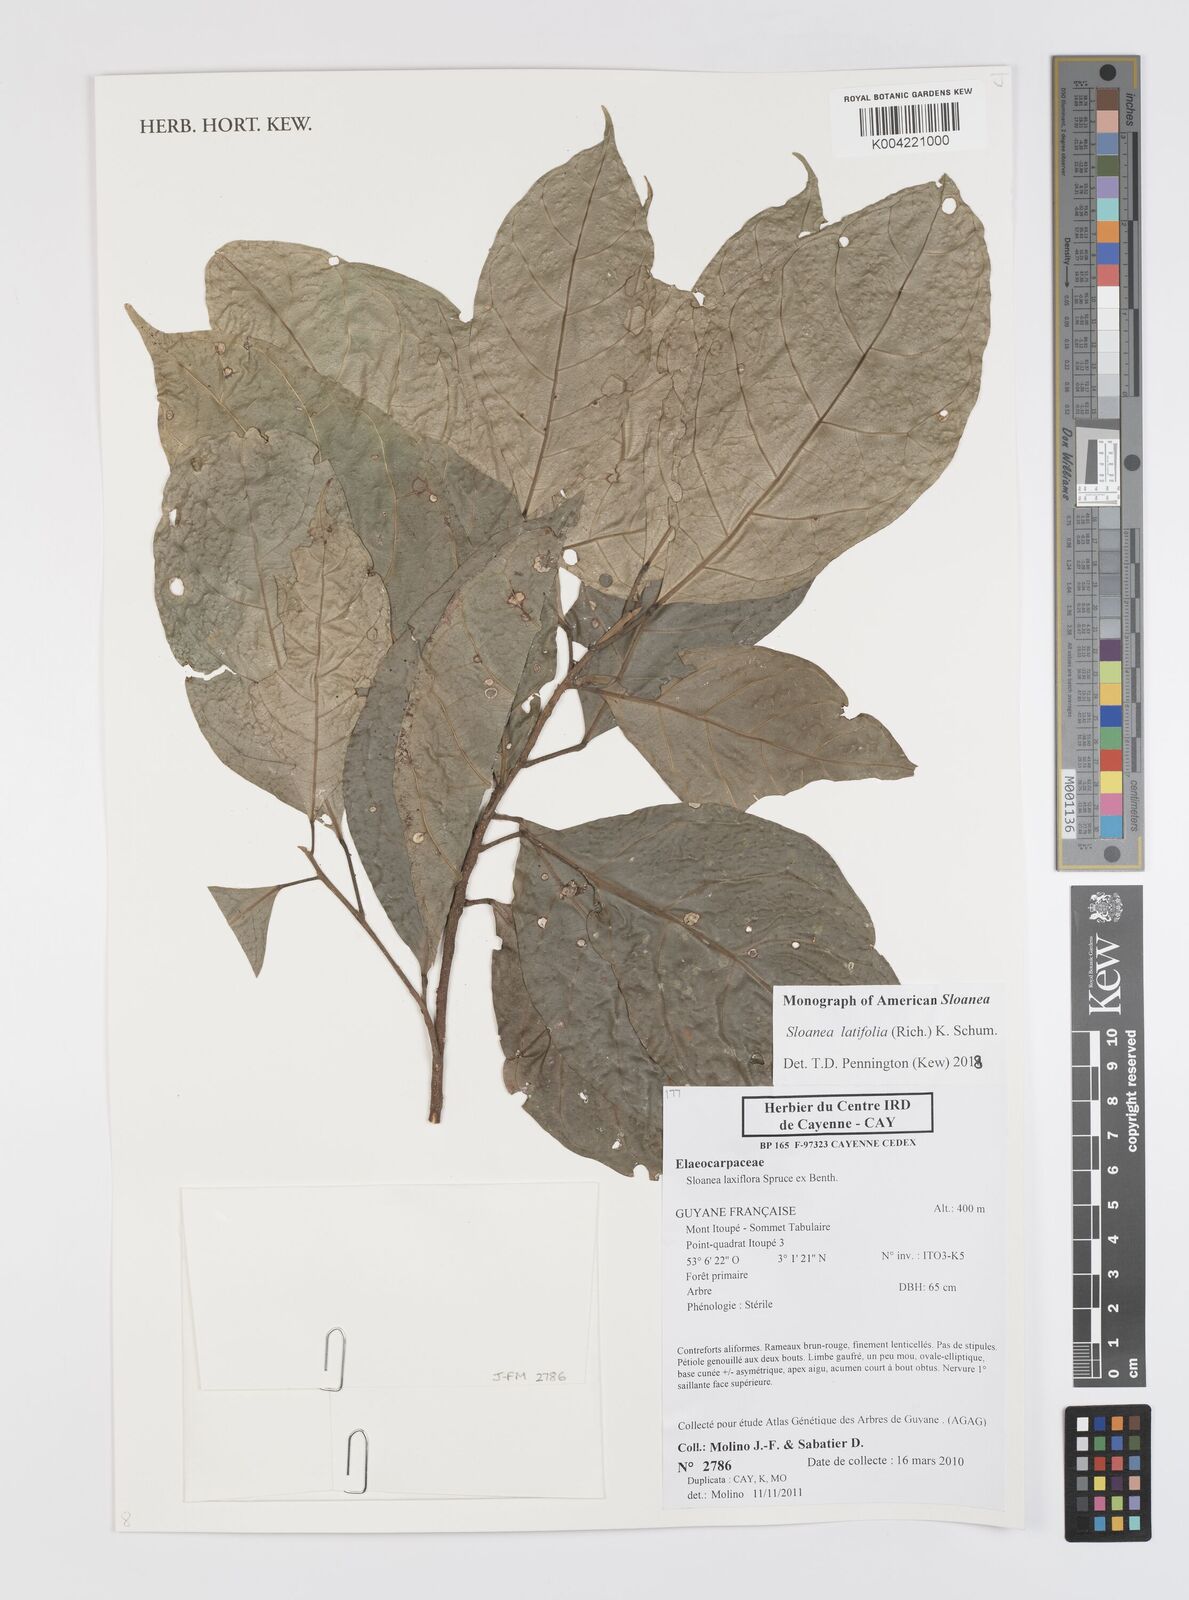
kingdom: Plantae
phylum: Tracheophyta
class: Magnoliopsida
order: Oxalidales
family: Elaeocarpaceae
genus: Sloanea
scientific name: Sloanea latifolia
